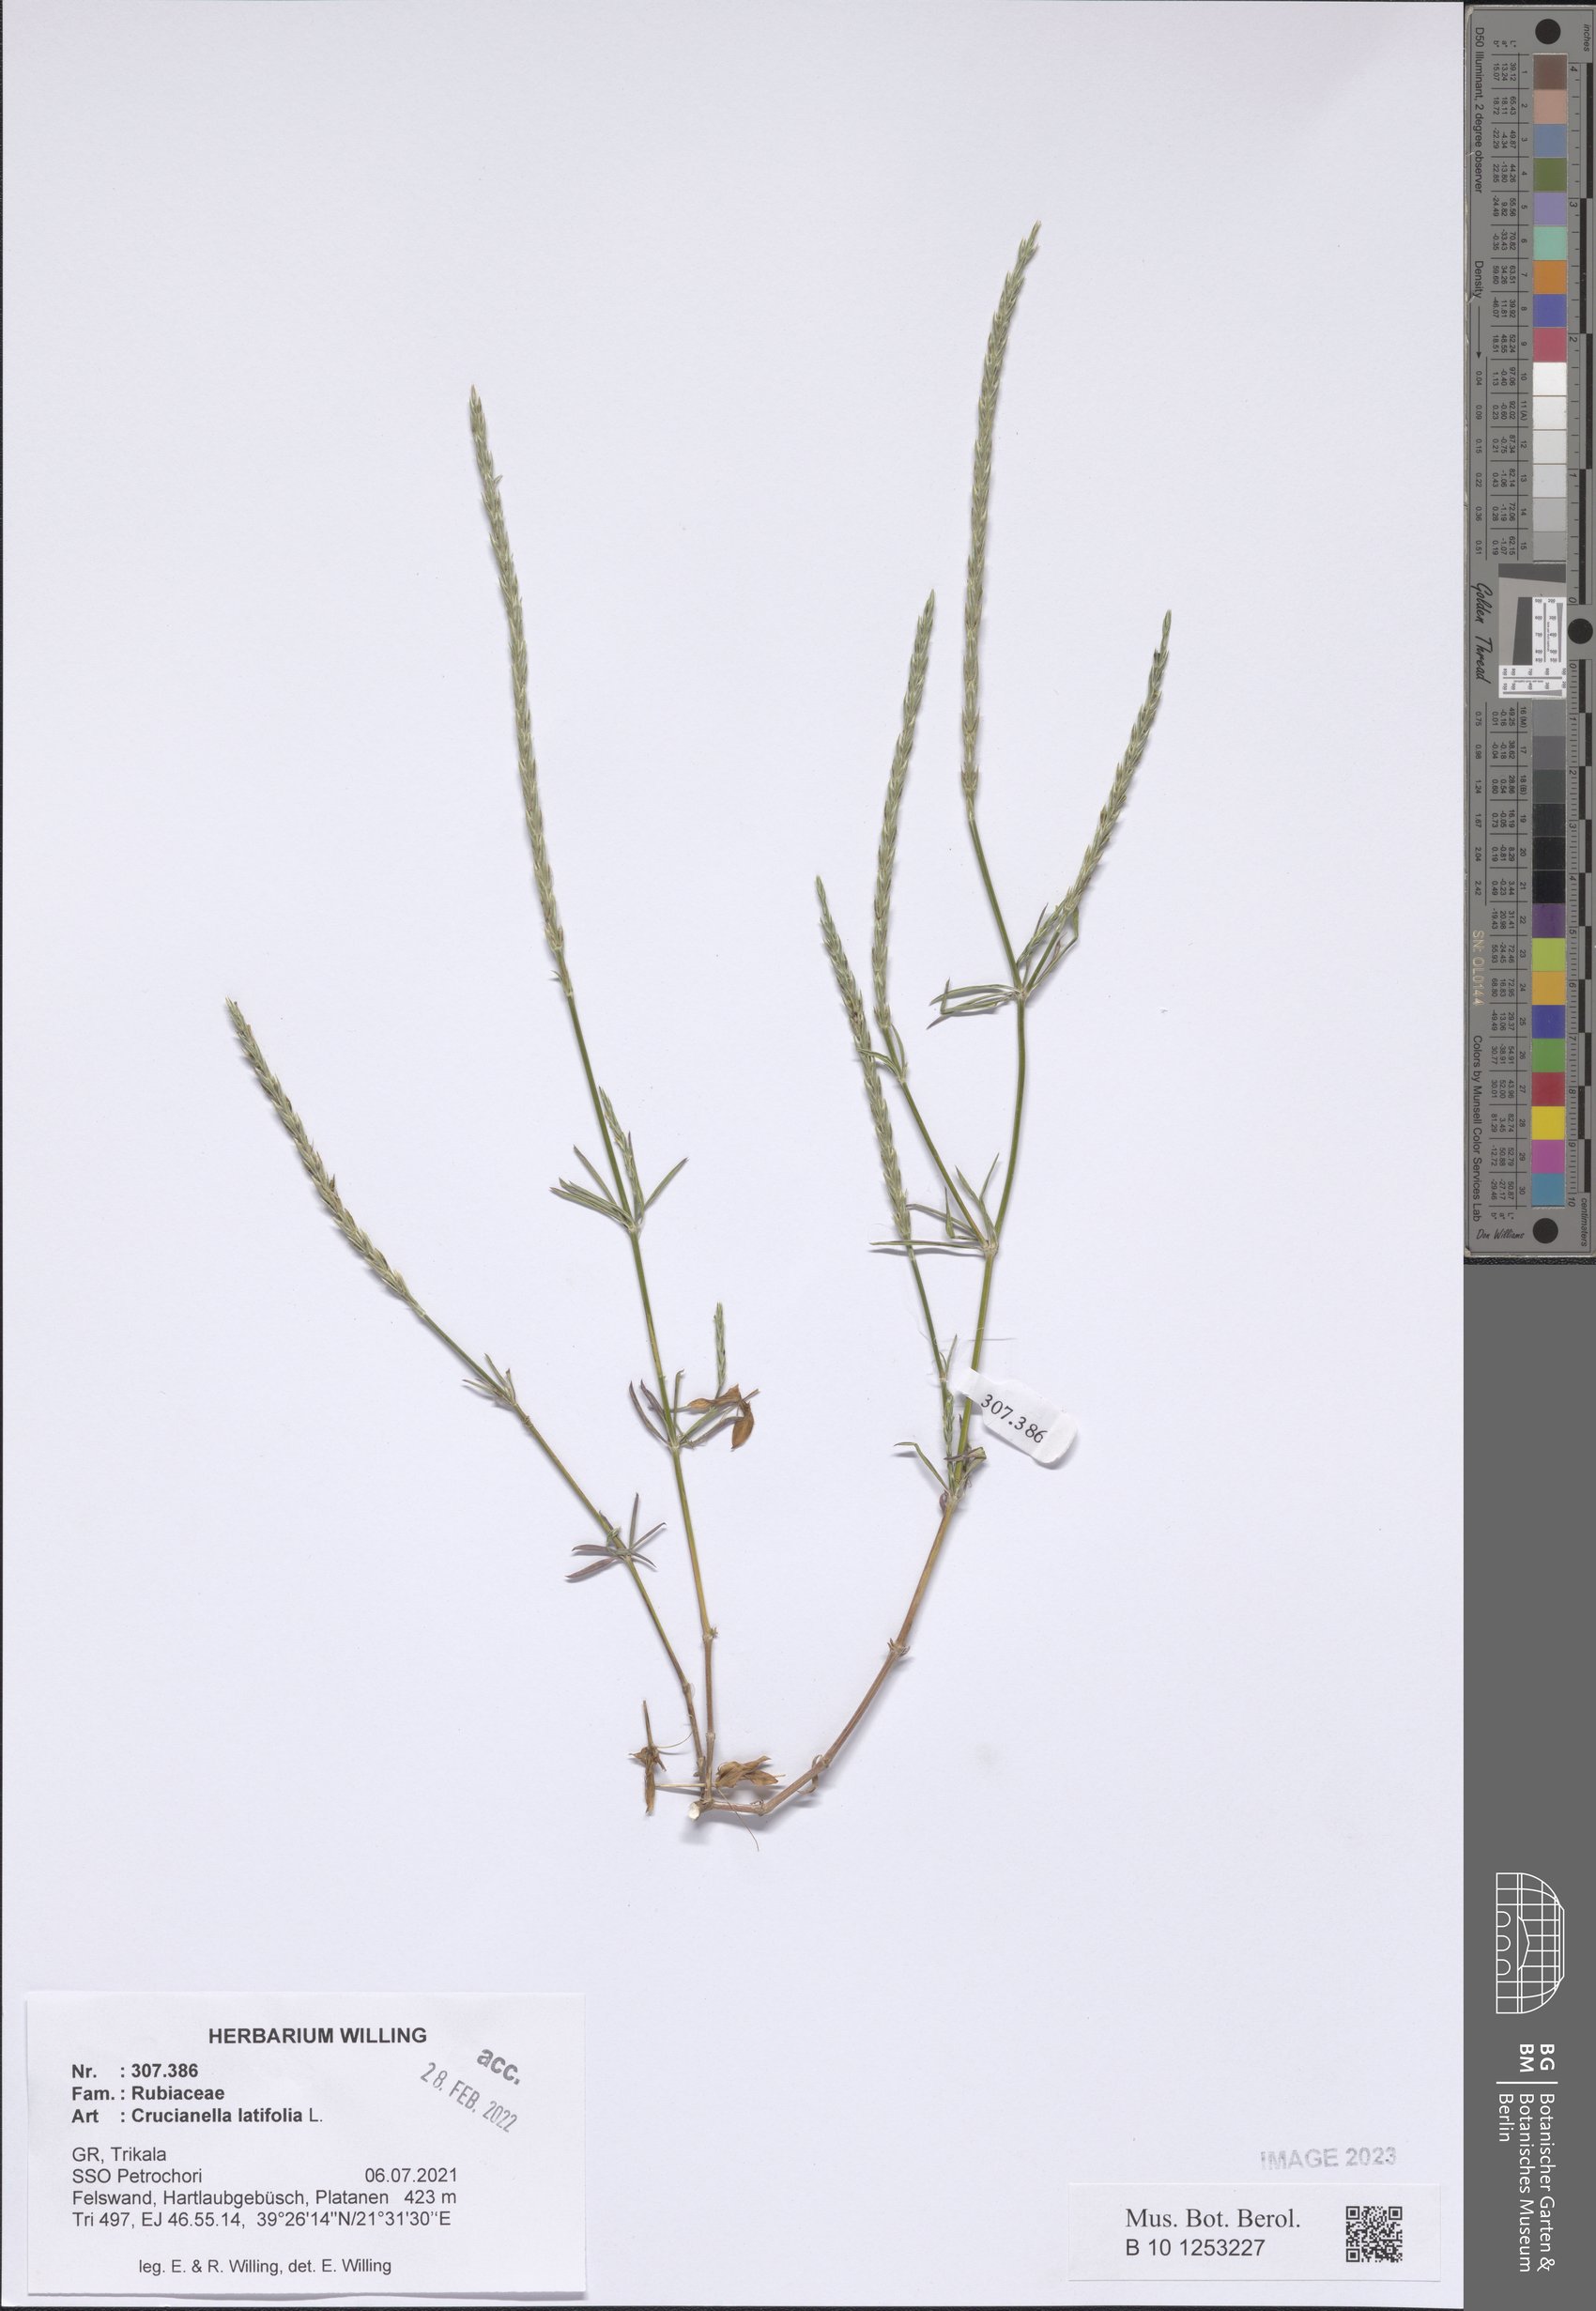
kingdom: Plantae
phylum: Tracheophyta
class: Magnoliopsida
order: Gentianales
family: Rubiaceae
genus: Crucianella
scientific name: Crucianella latifolia
